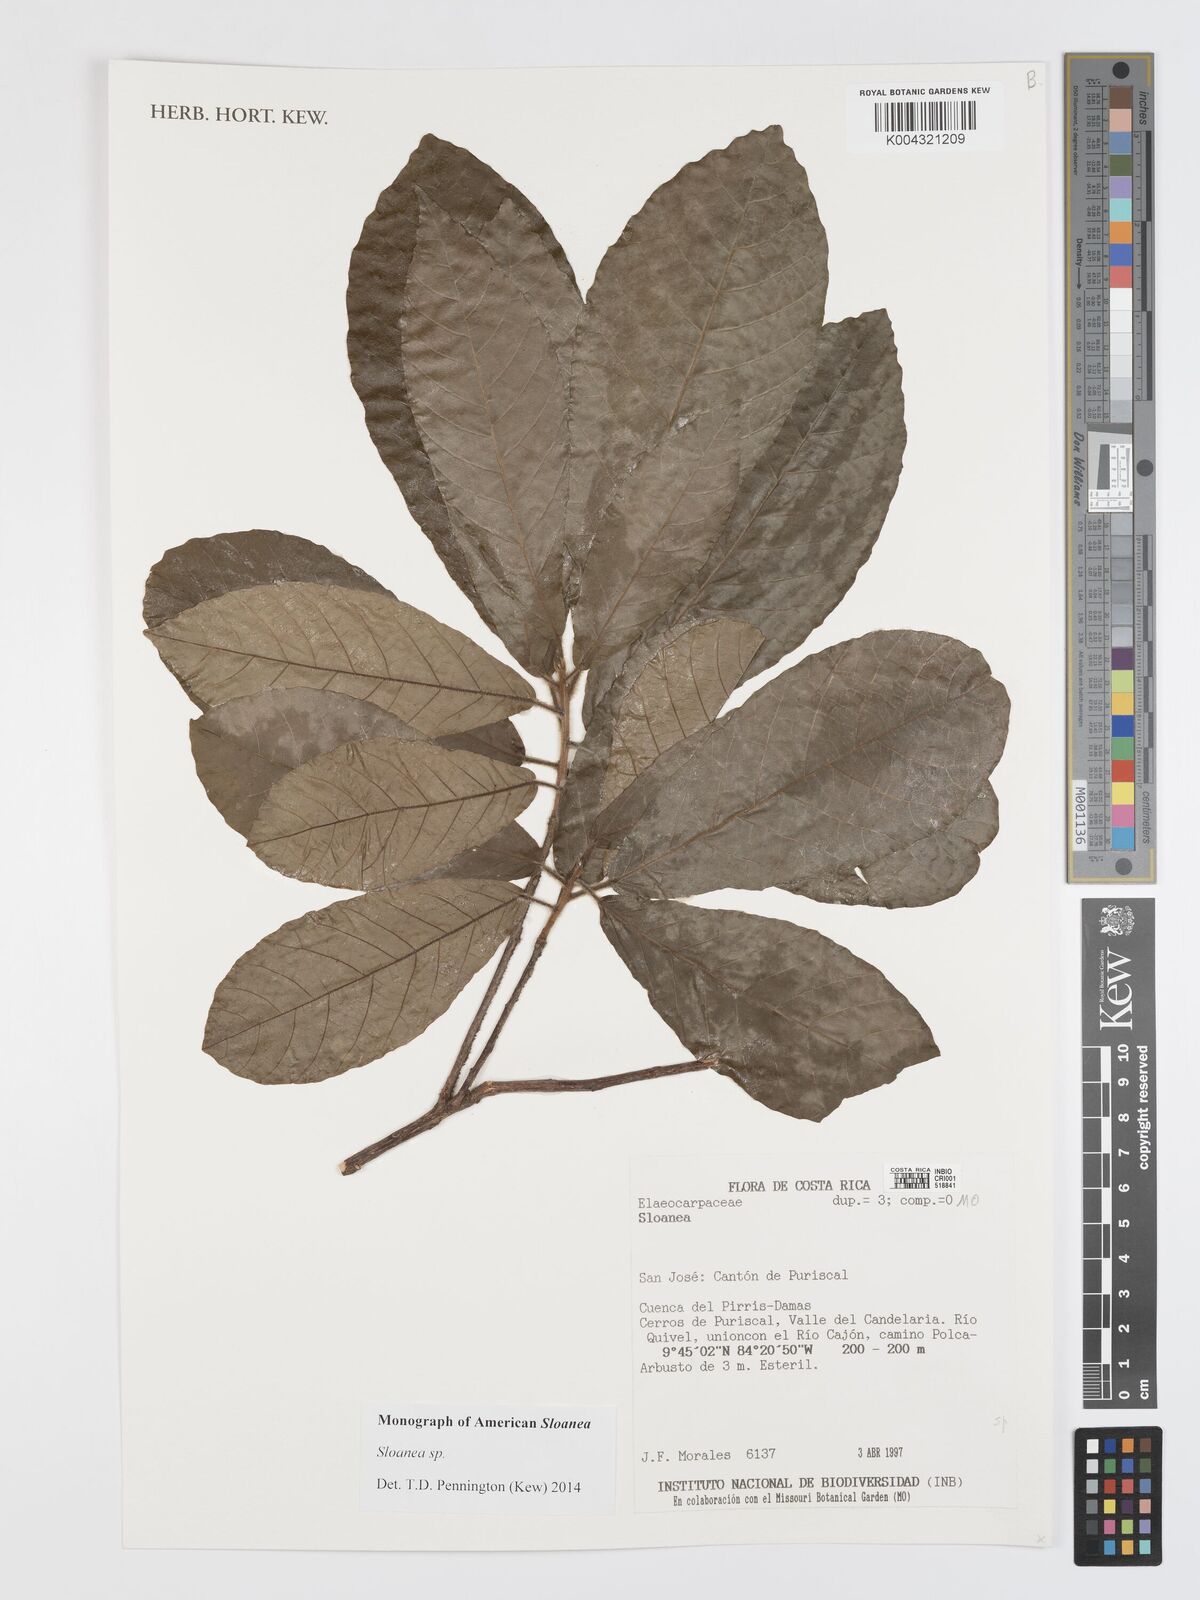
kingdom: Plantae
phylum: Tracheophyta
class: Magnoliopsida
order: Oxalidales
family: Elaeocarpaceae
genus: Sloanea
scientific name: Sloanea
